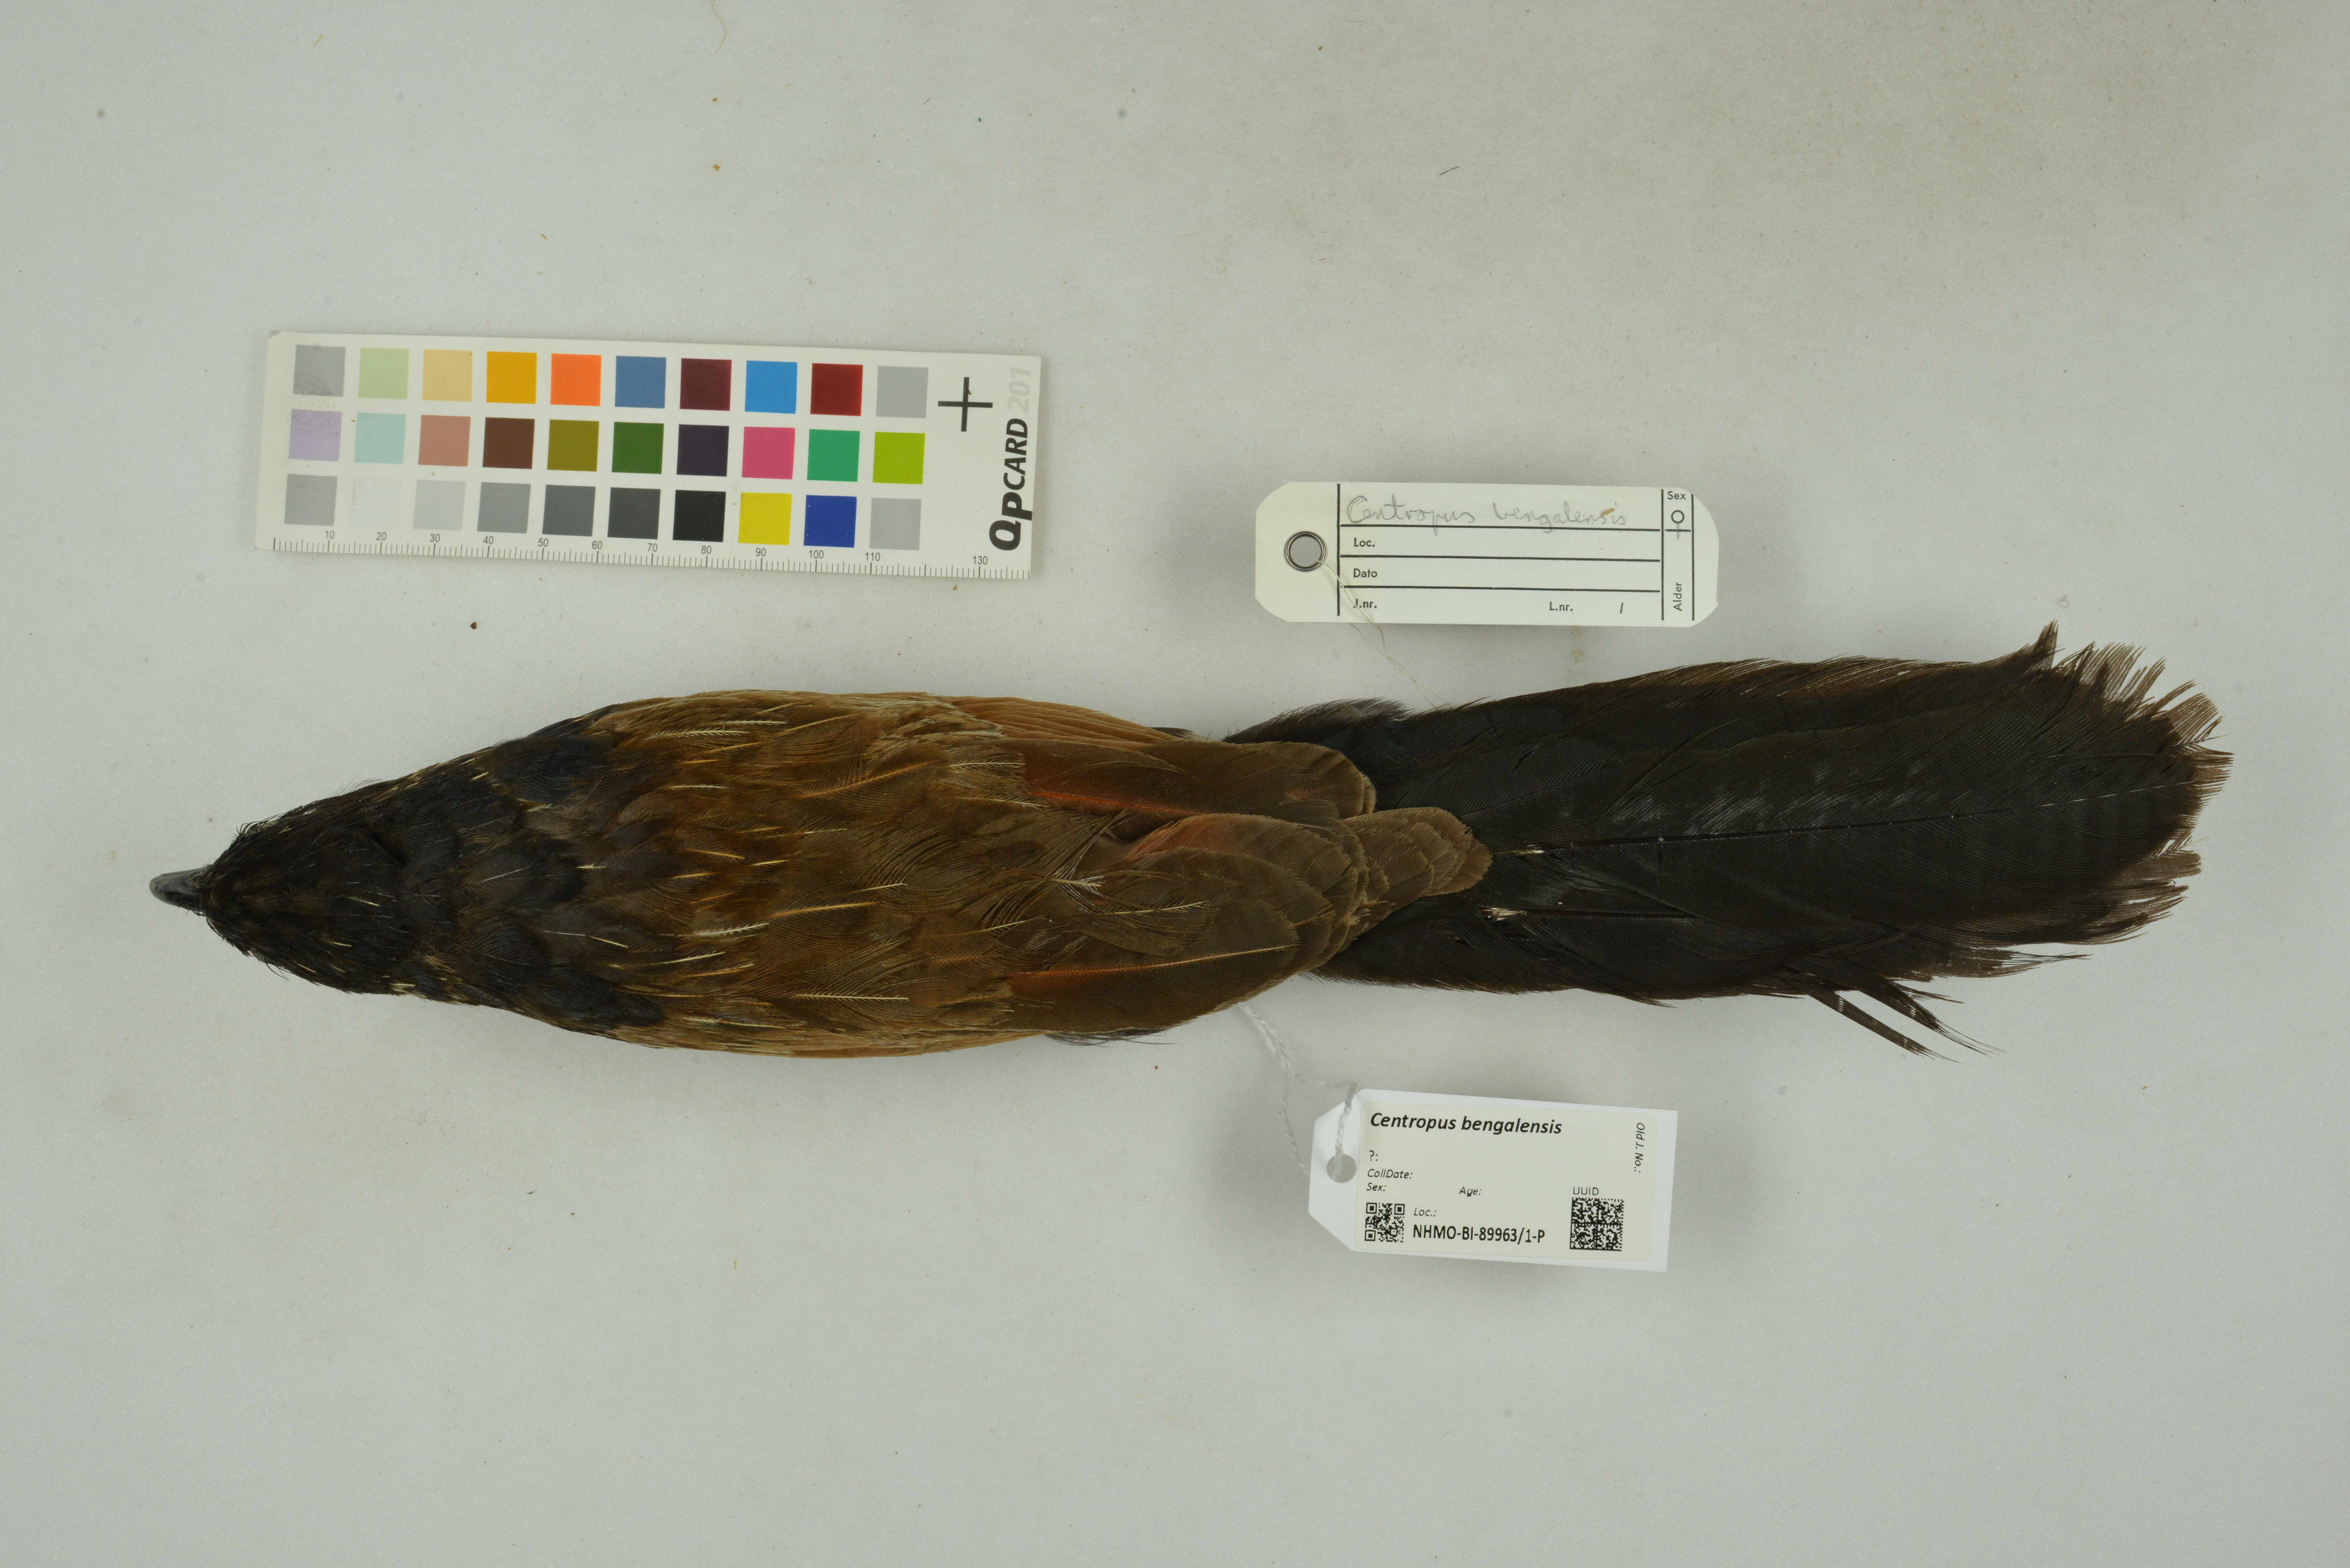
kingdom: Animalia
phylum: Chordata
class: Aves
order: Cuculiformes
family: Cuculidae
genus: Centropus
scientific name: Centropus bengalensis
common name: Lesser coucal
